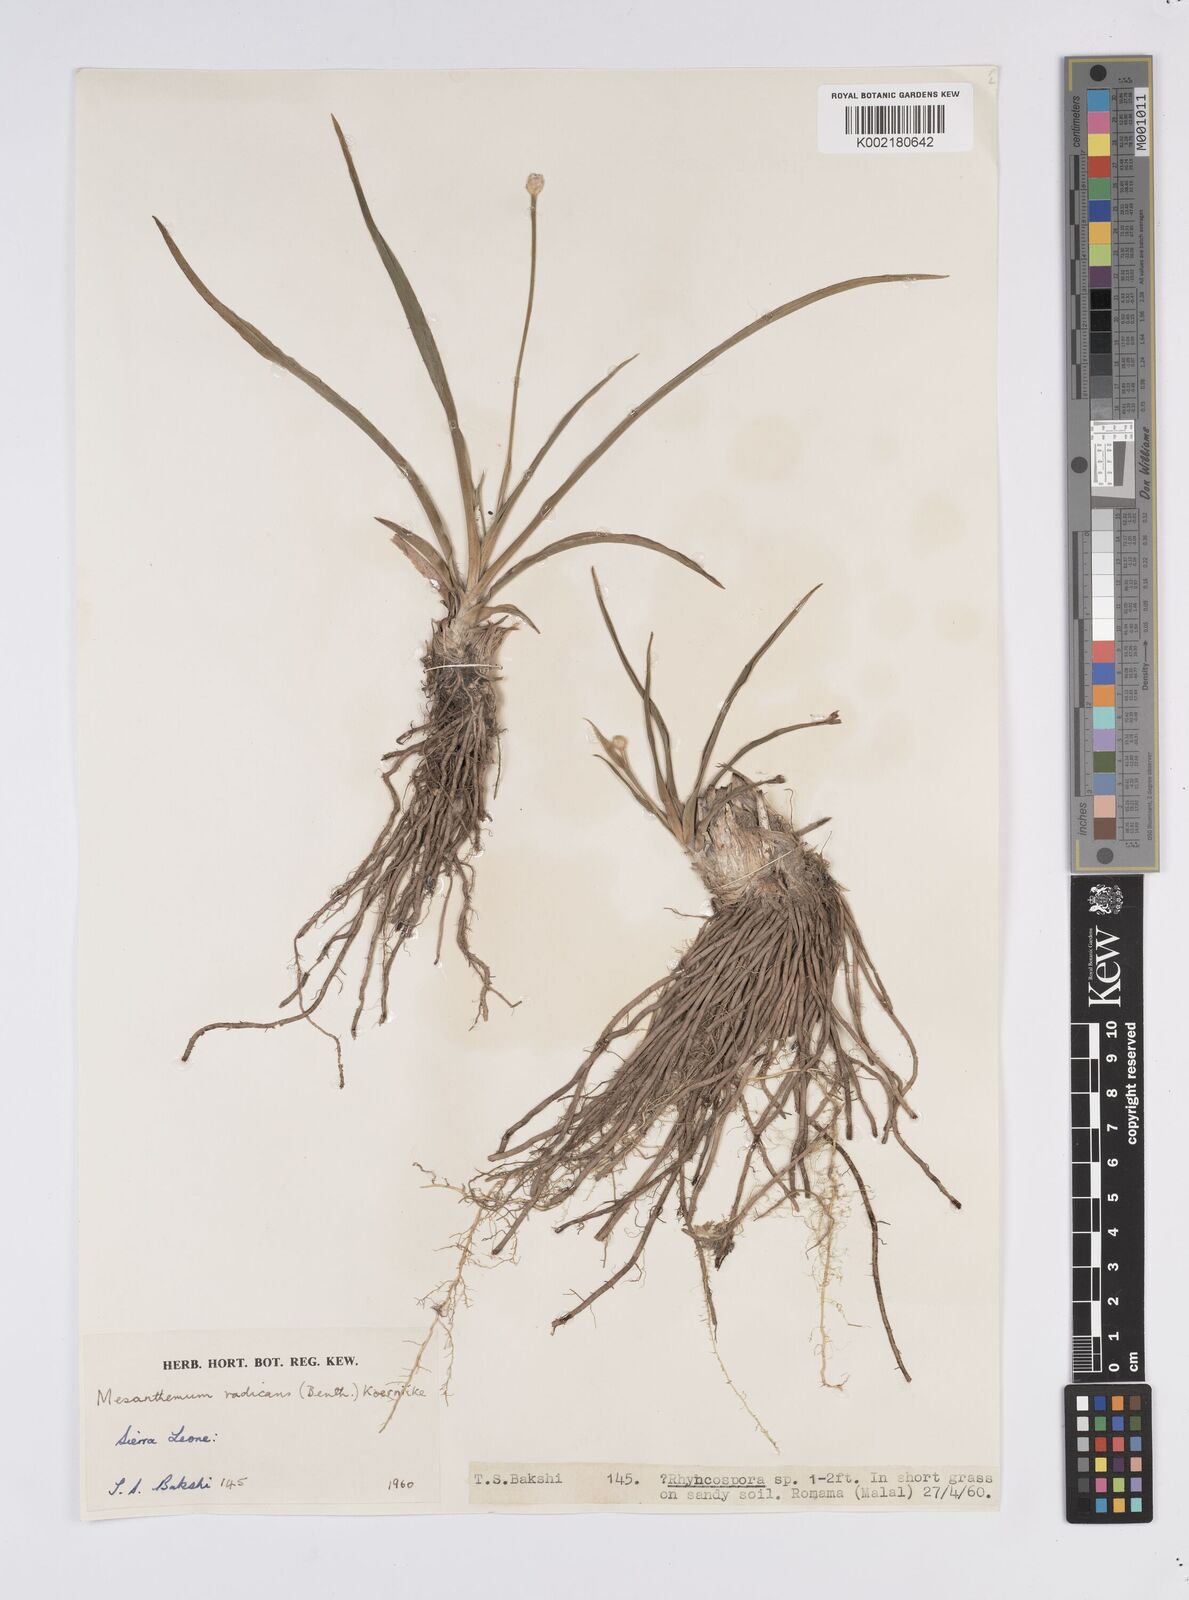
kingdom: Plantae
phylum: Tracheophyta
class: Liliopsida
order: Poales
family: Eriocaulaceae
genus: Mesanthemum
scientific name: Mesanthemum radicans
